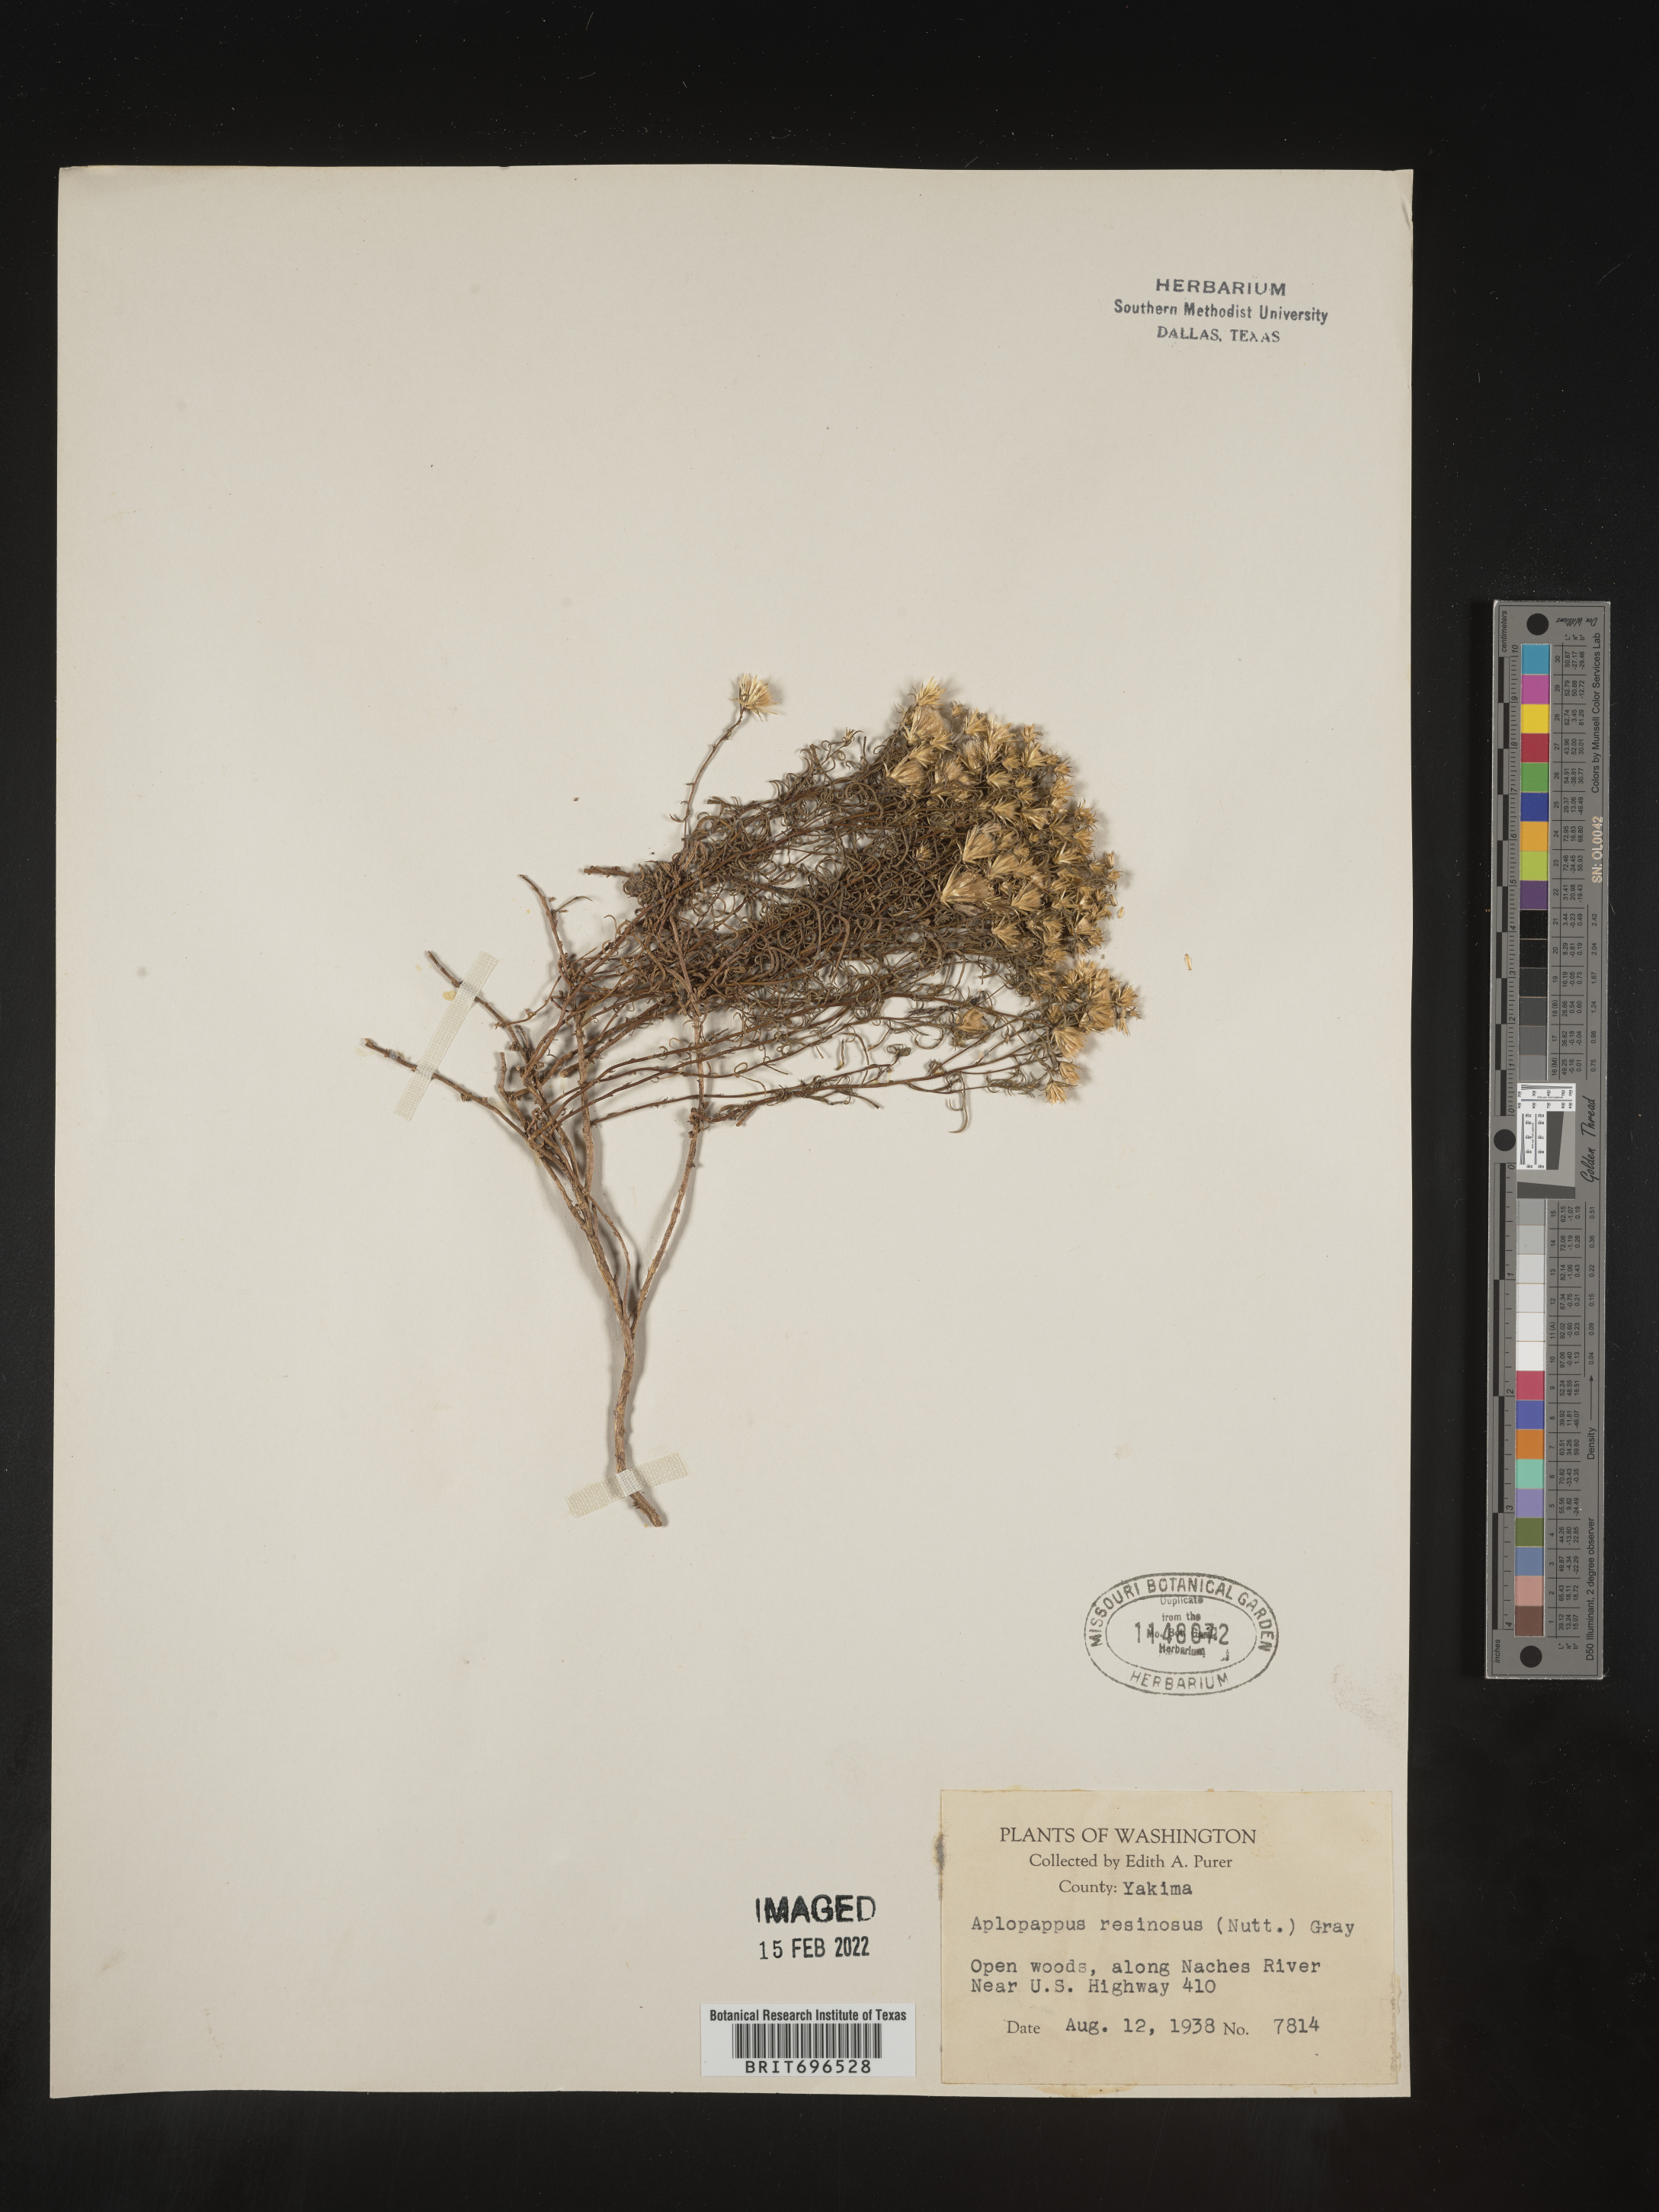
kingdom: Plantae
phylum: Tracheophyta
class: Magnoliopsida
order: Asterales
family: Asteraceae
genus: Ericameria
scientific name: Ericameria resinosa
